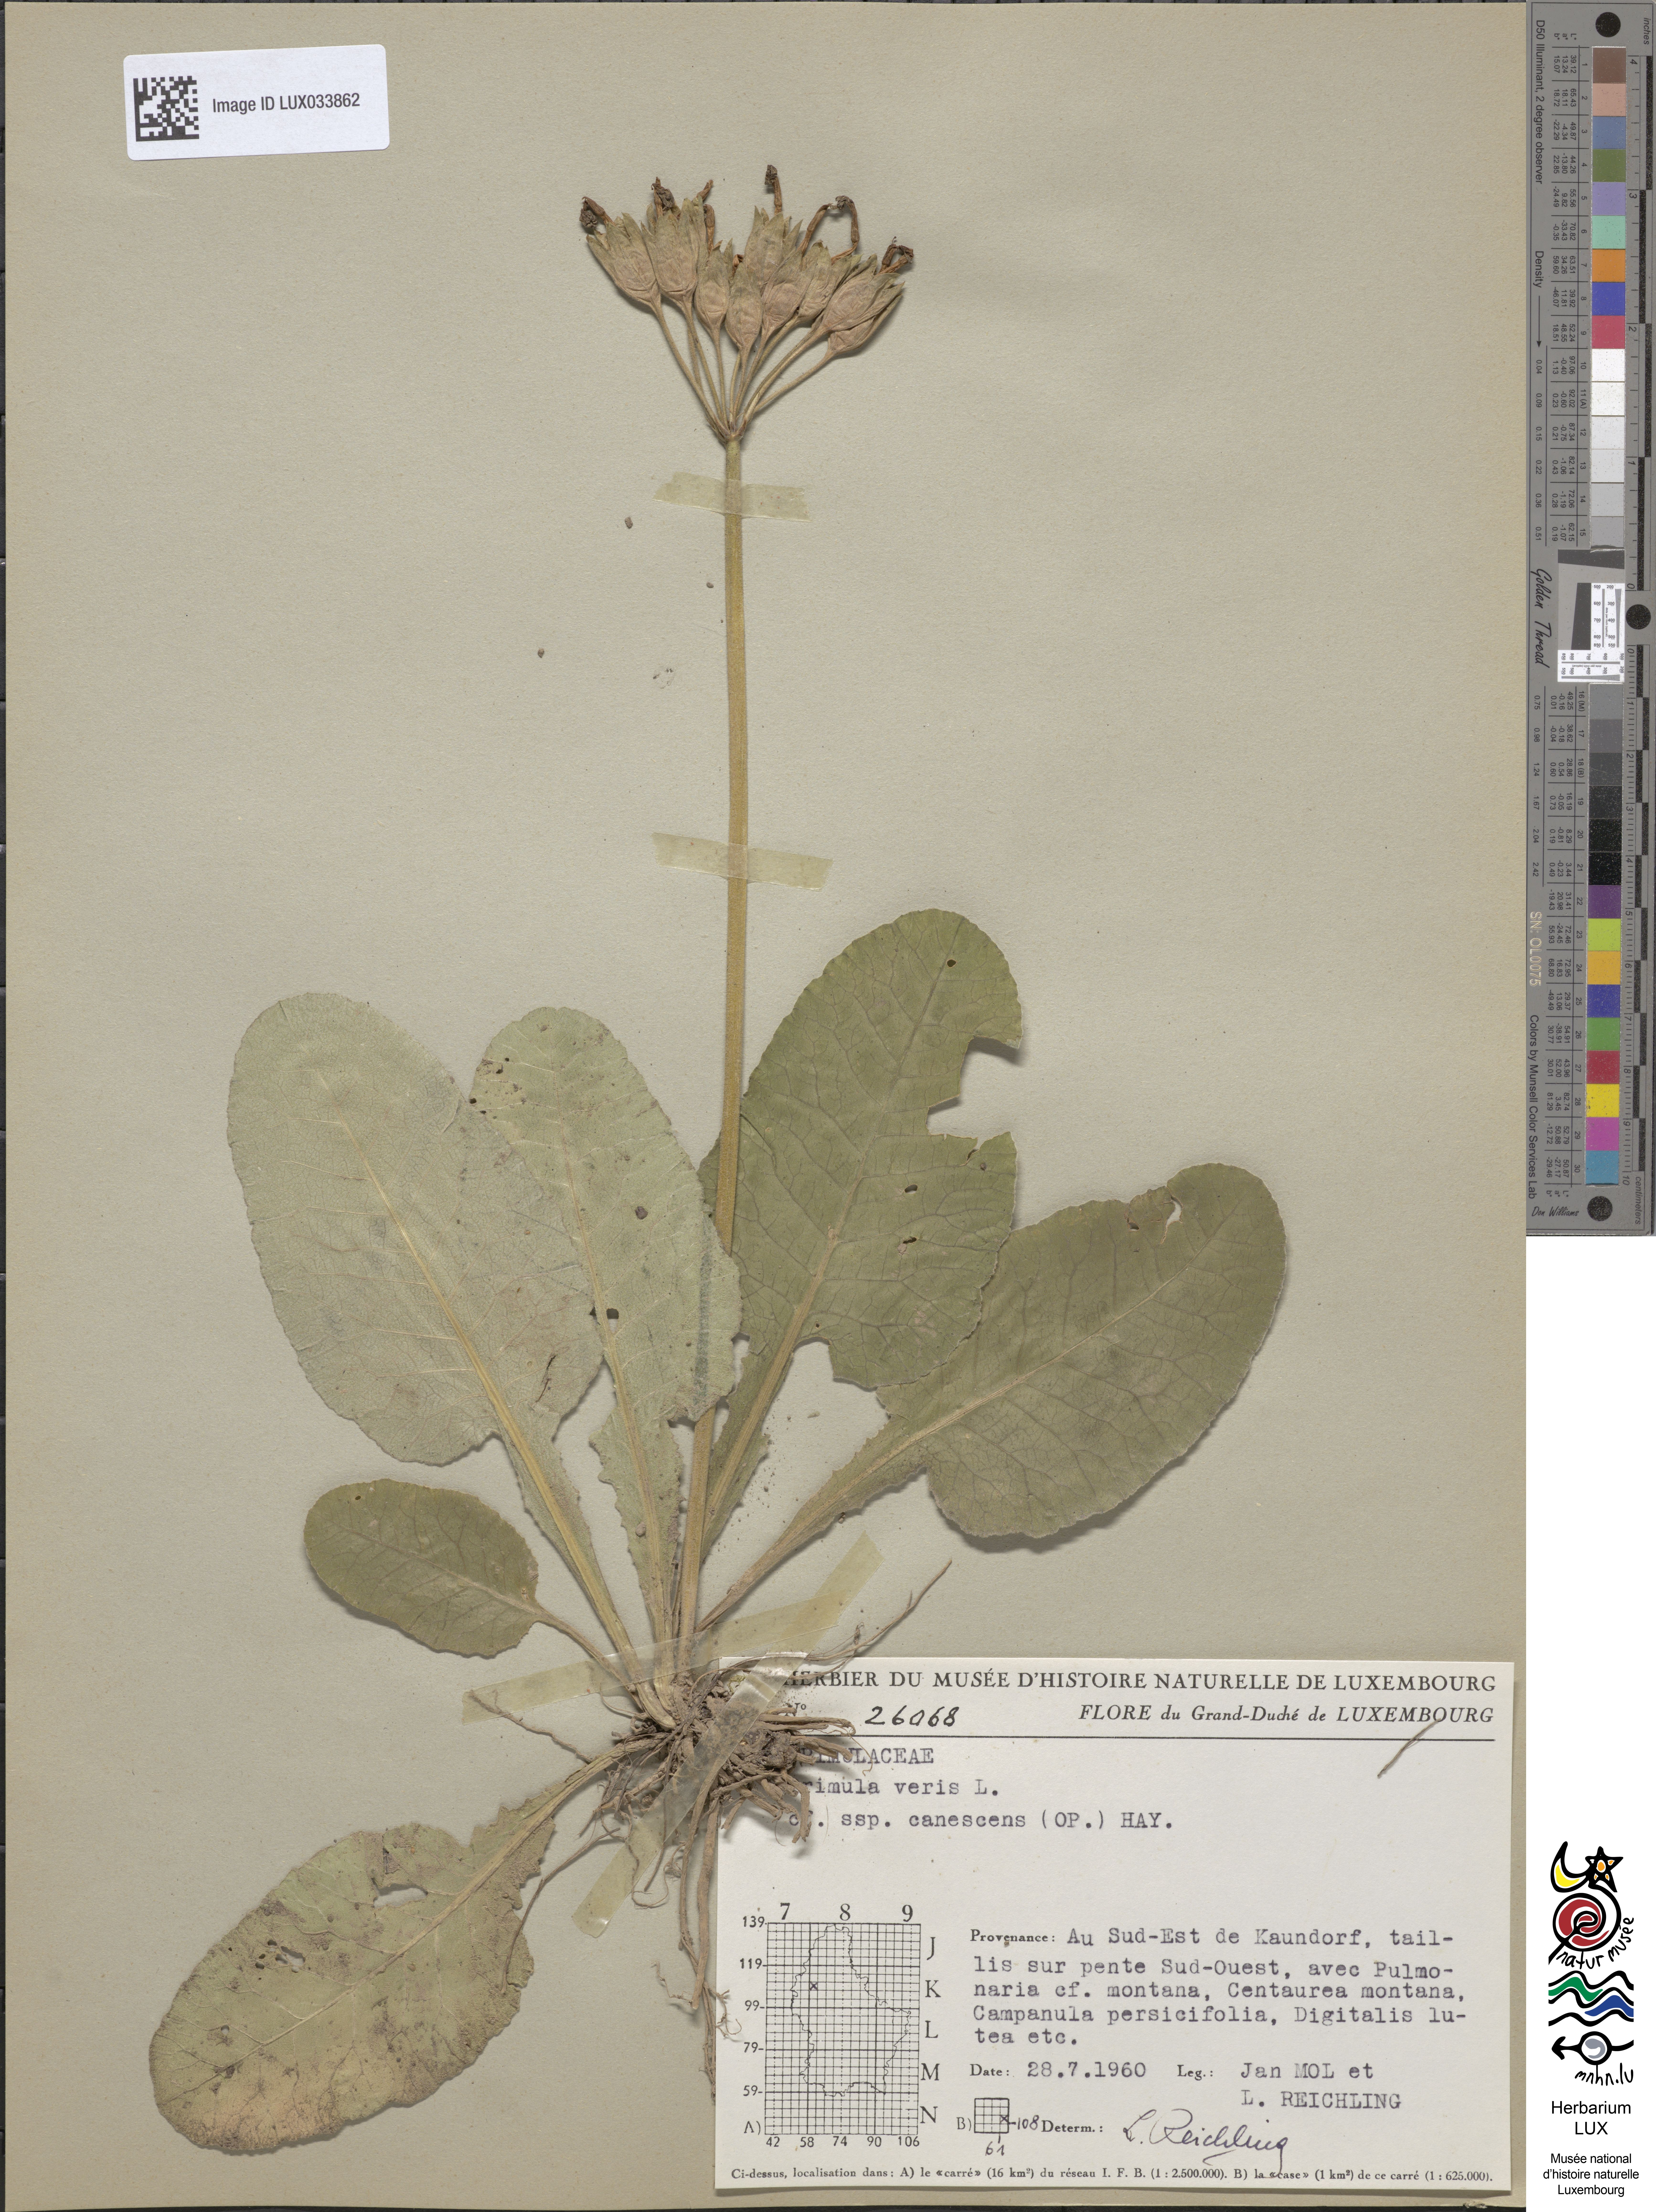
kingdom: Plantae
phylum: Tracheophyta
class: Magnoliopsida
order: Ericales
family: Primulaceae
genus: Primula
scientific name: Primula veris
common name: Cowslip
